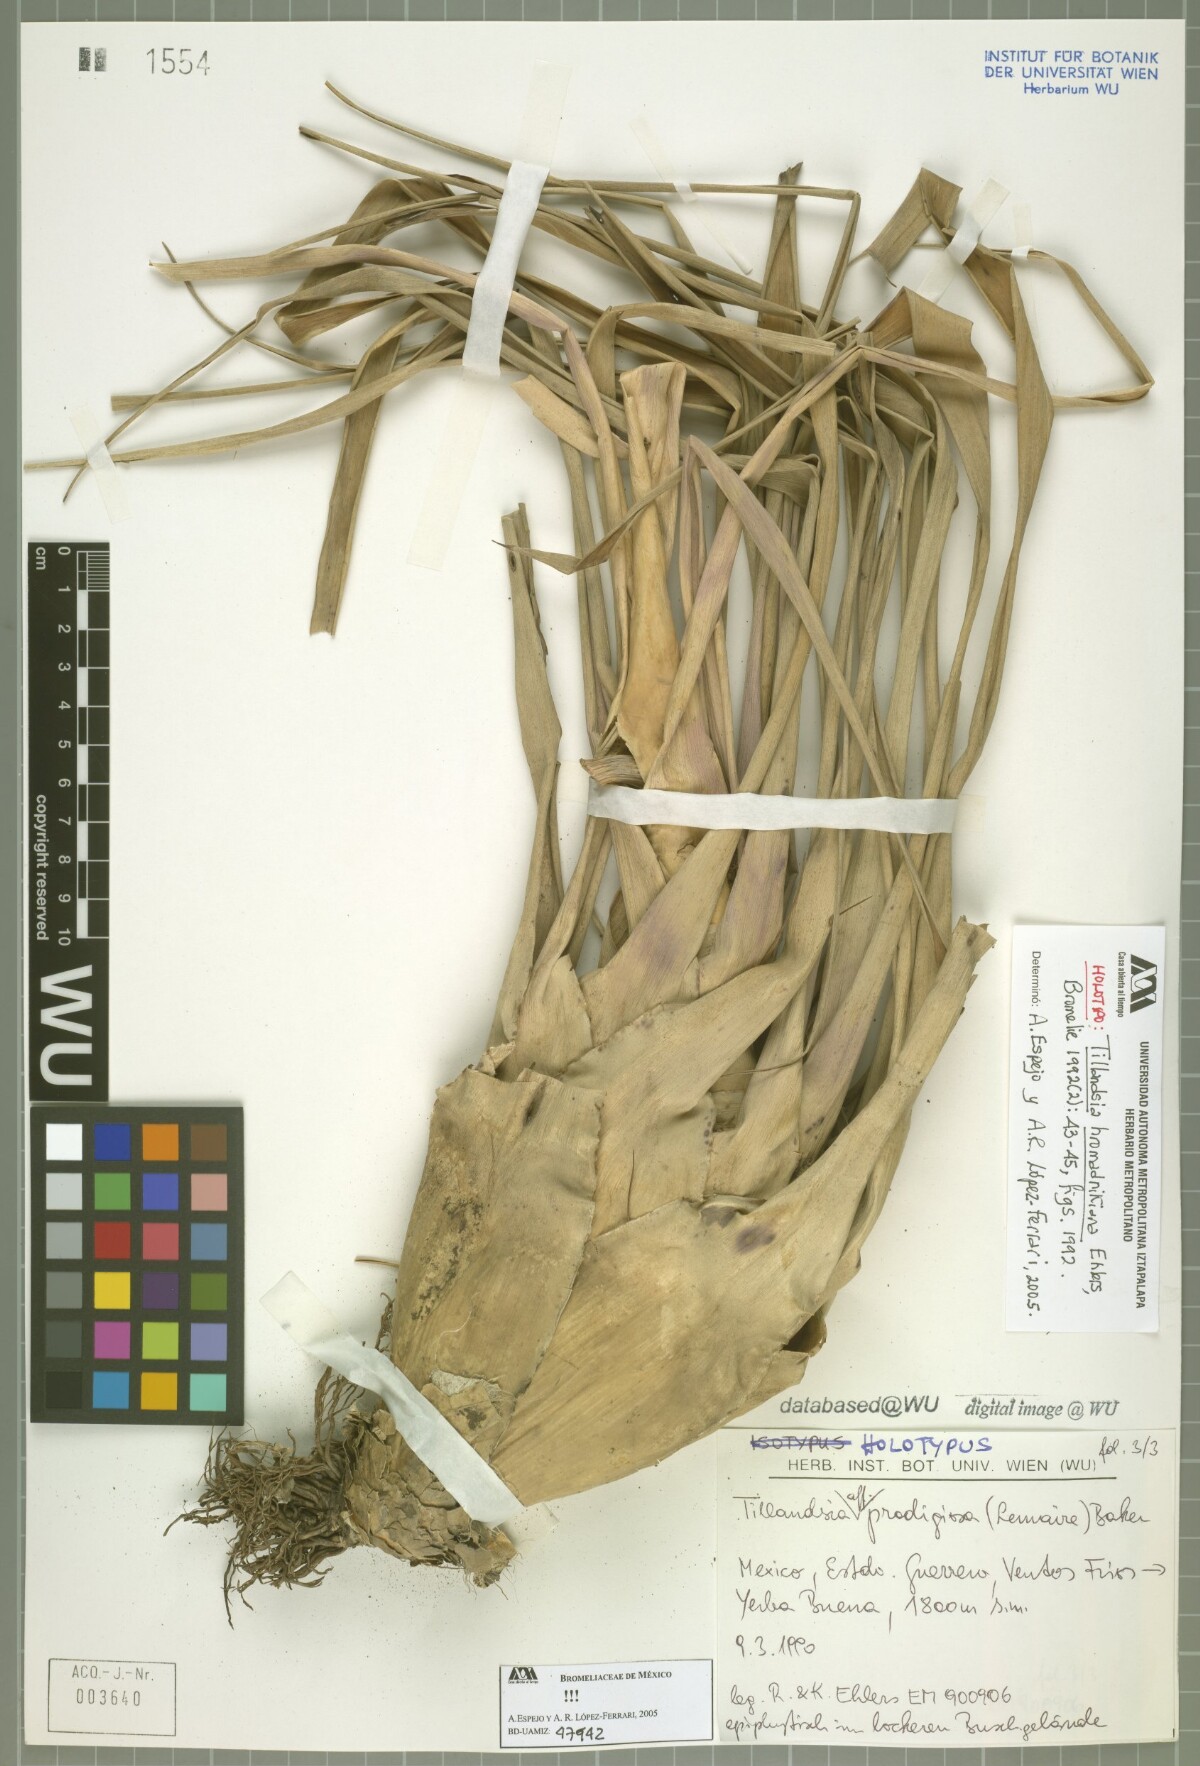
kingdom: Plantae
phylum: Tracheophyta
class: Liliopsida
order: Poales
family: Bromeliaceae
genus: Tillandsia
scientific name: Tillandsia prodigiosa
